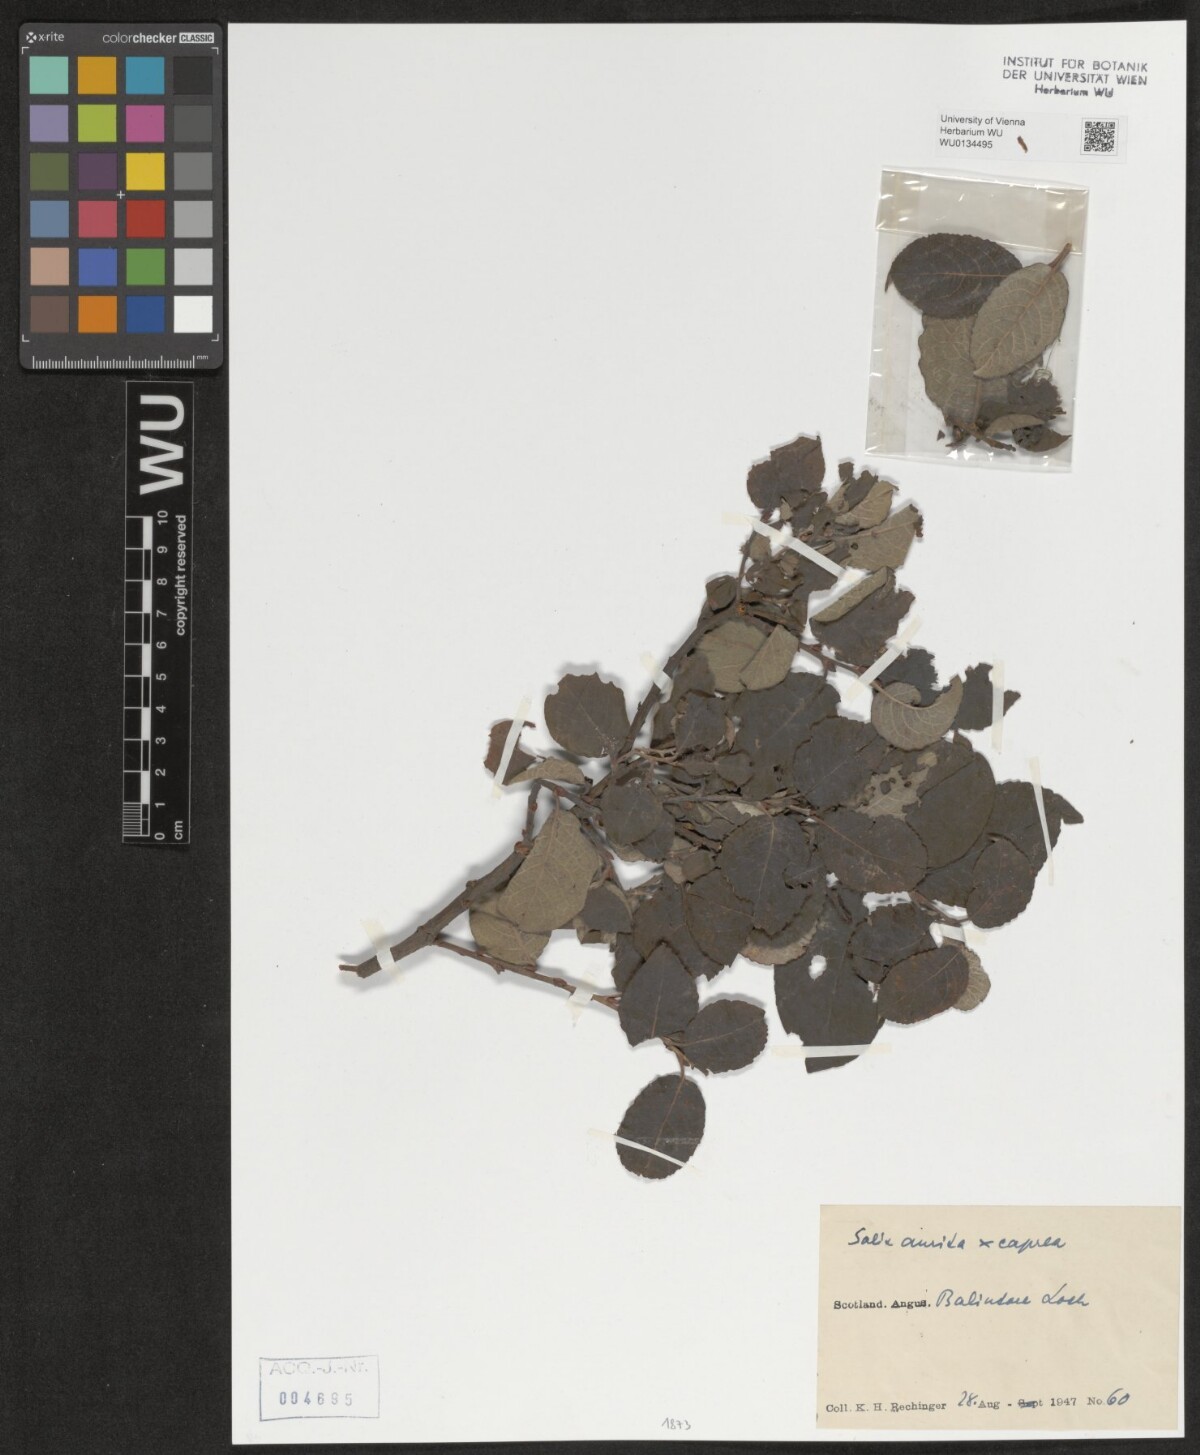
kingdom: Plantae
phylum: Tracheophyta
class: Magnoliopsida
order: Malpighiales
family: Salicaceae
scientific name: Salicaceae
